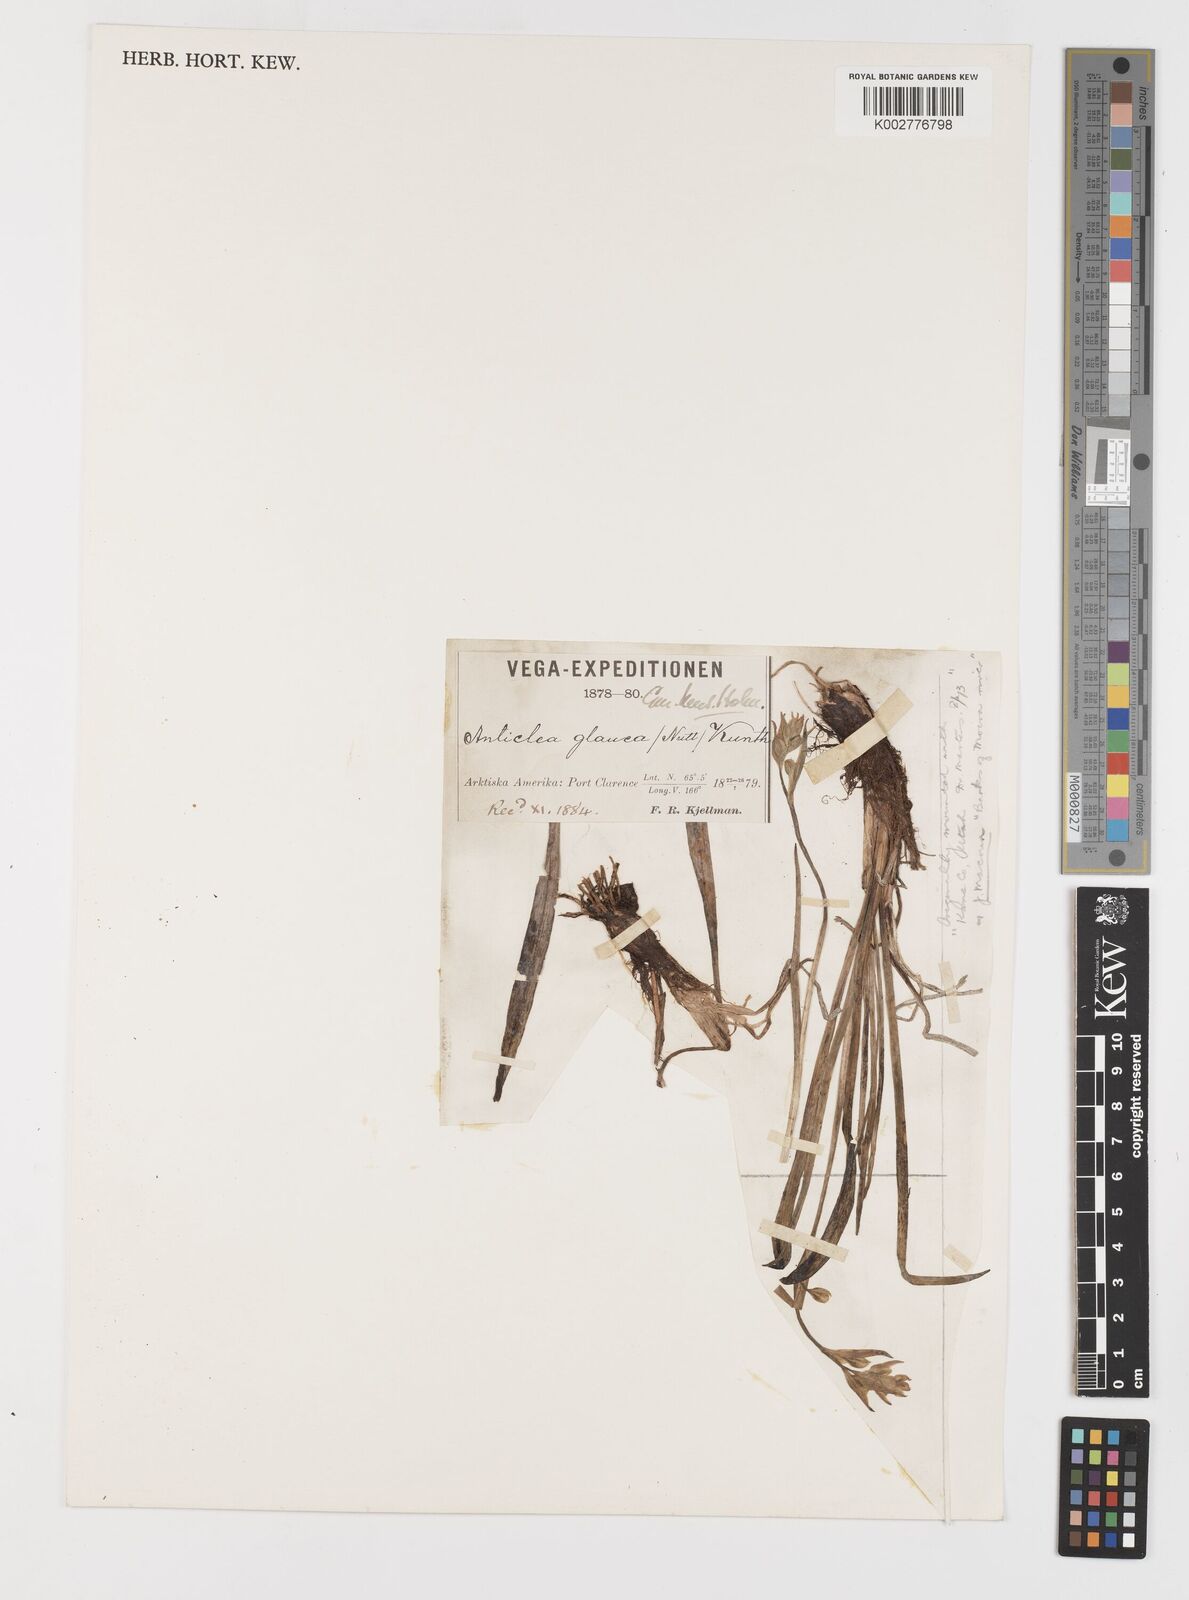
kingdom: Plantae
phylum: Tracheophyta
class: Liliopsida
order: Liliales
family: Melanthiaceae
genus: Anticlea
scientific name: Anticlea elegans
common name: Mountain death camas
